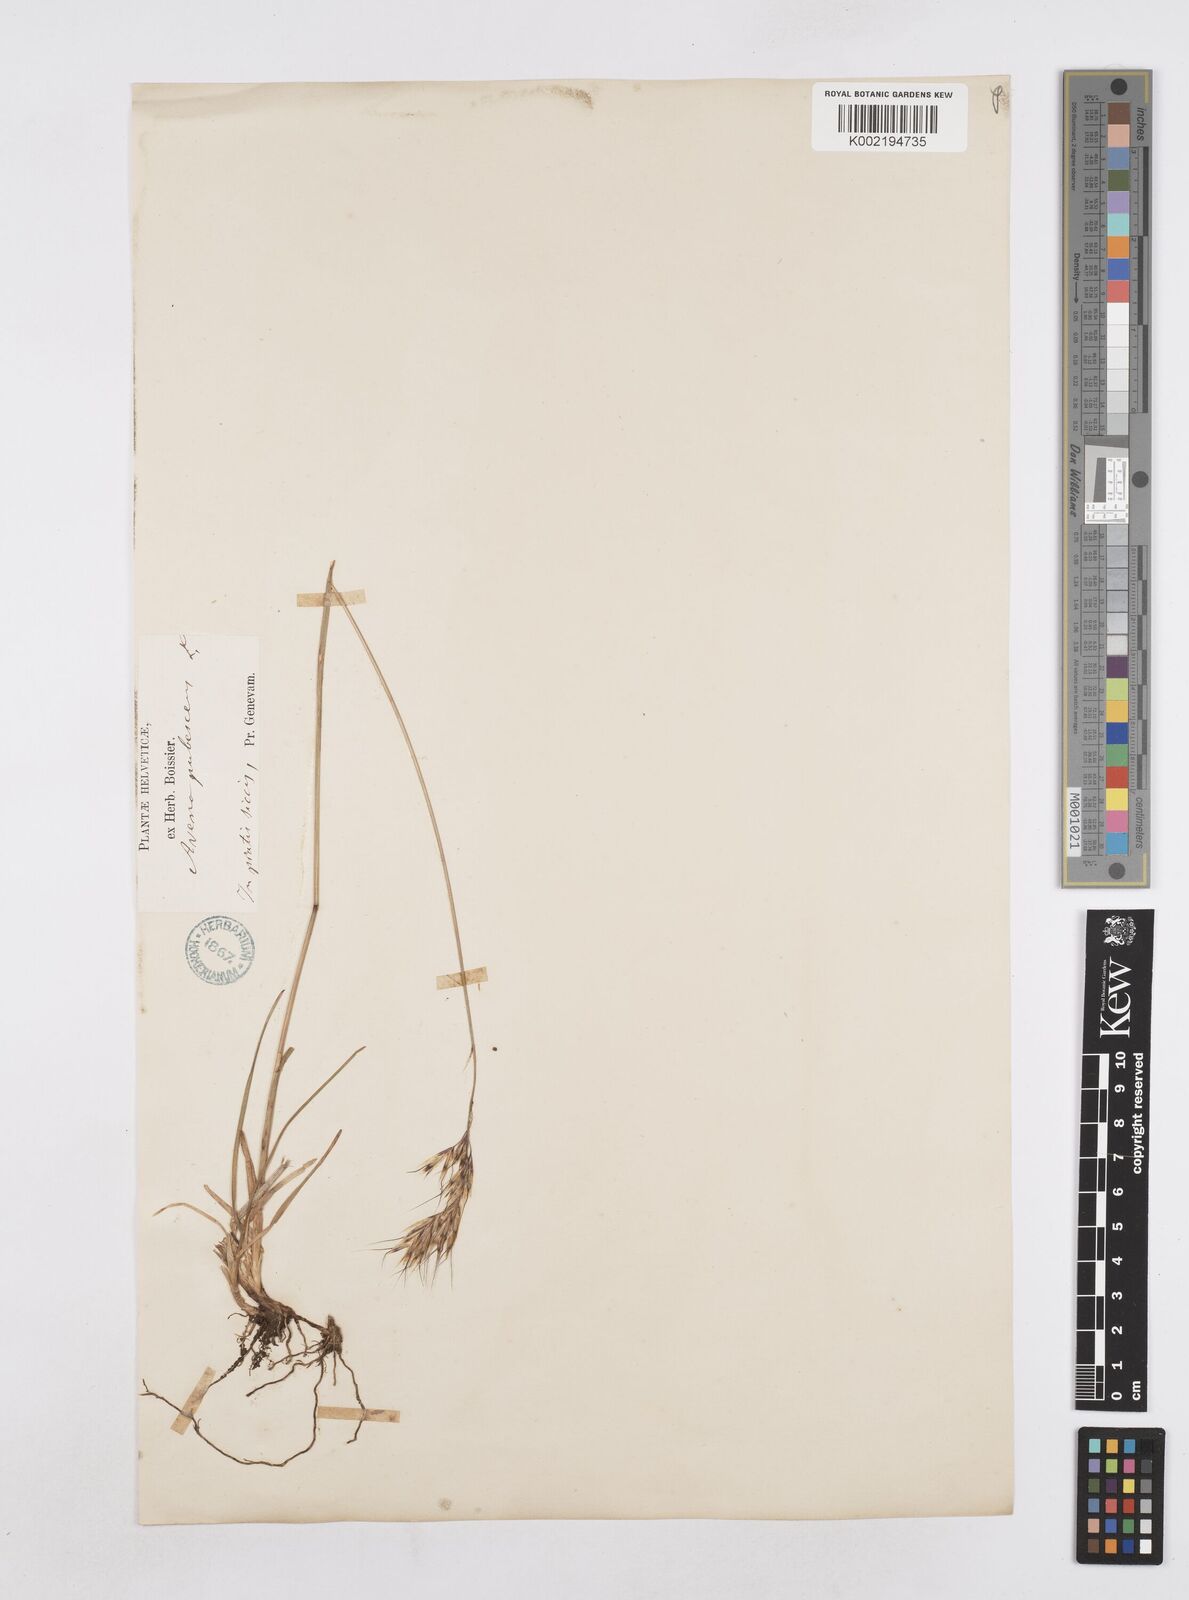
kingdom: Plantae
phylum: Tracheophyta
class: Liliopsida
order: Poales
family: Poaceae
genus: Avenula
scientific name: Avenula pubescens
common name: Downy alpine oatgrass
